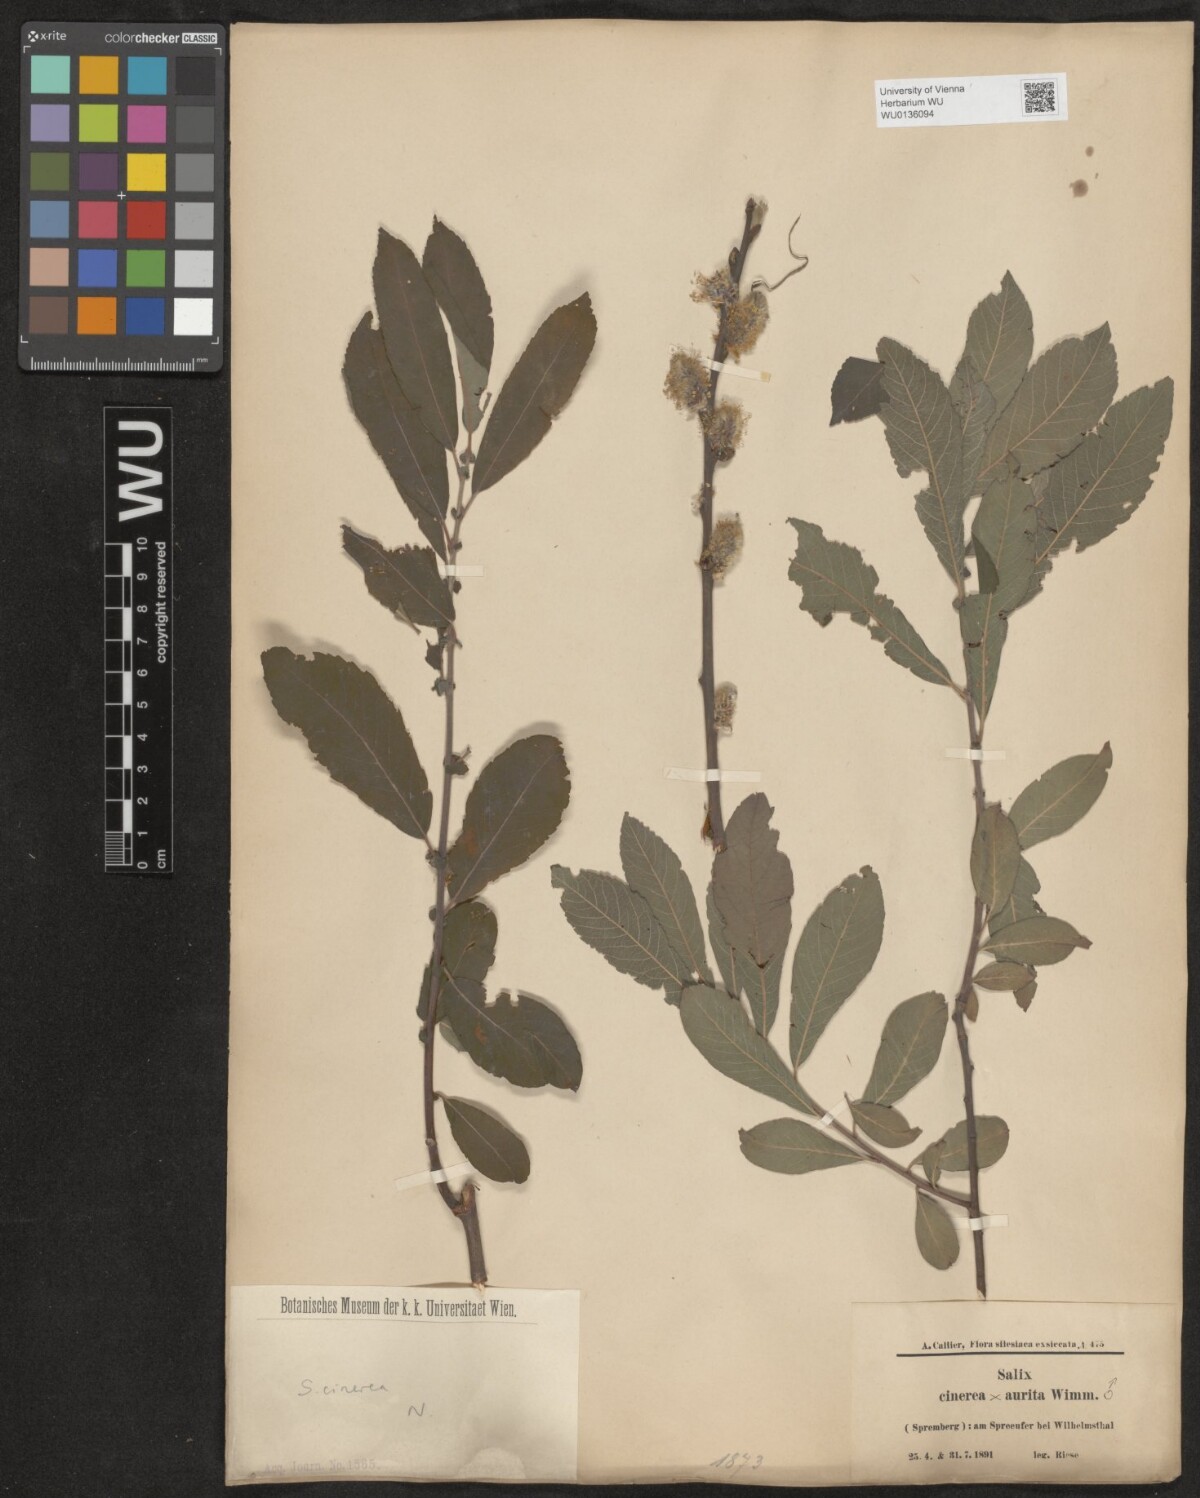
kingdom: Plantae
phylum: Tracheophyta
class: Magnoliopsida
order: Malpighiales
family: Salicaceae
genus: Salix
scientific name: Salix cinerea
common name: Common sallow
